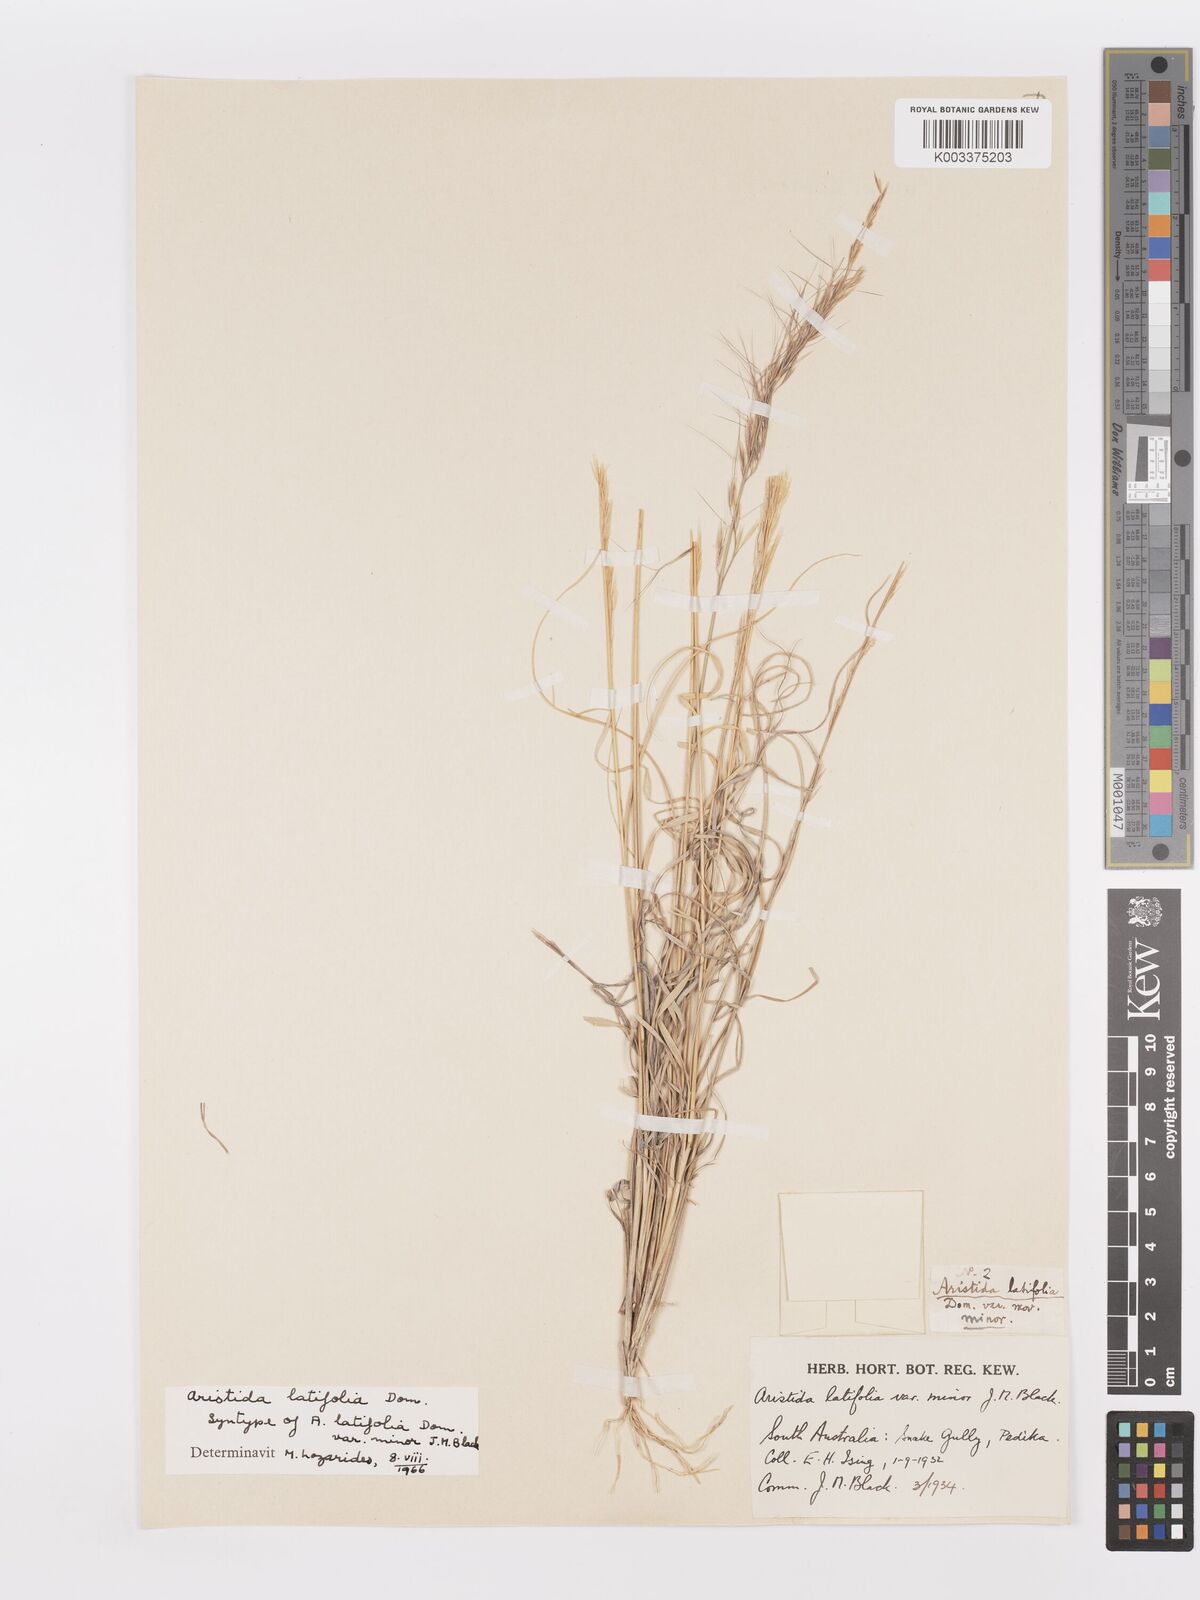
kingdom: Plantae
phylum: Tracheophyta
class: Liliopsida
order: Poales
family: Poaceae
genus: Aristida
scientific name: Aristida latifolia
